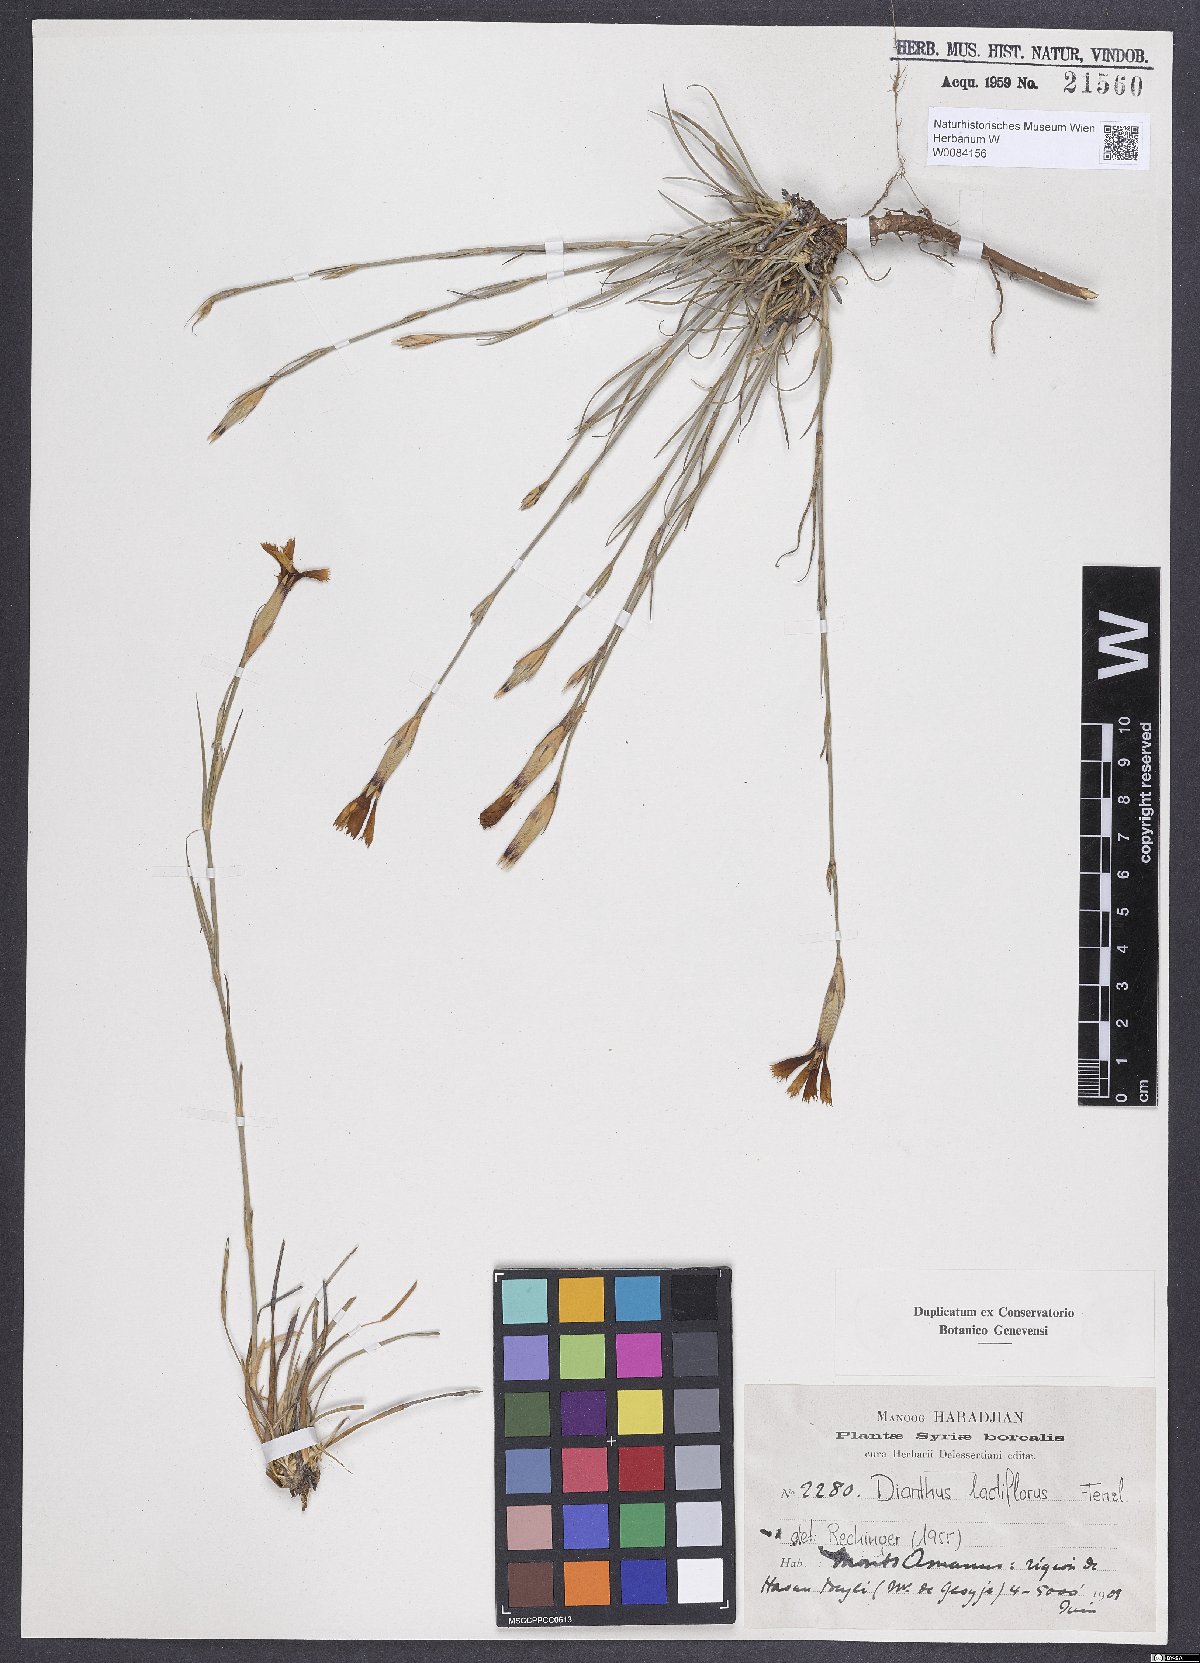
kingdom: Plantae
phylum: Tracheophyta
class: Magnoliopsida
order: Caryophyllales
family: Caryophyllaceae
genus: Dianthus
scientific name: Dianthus lactiflorus
